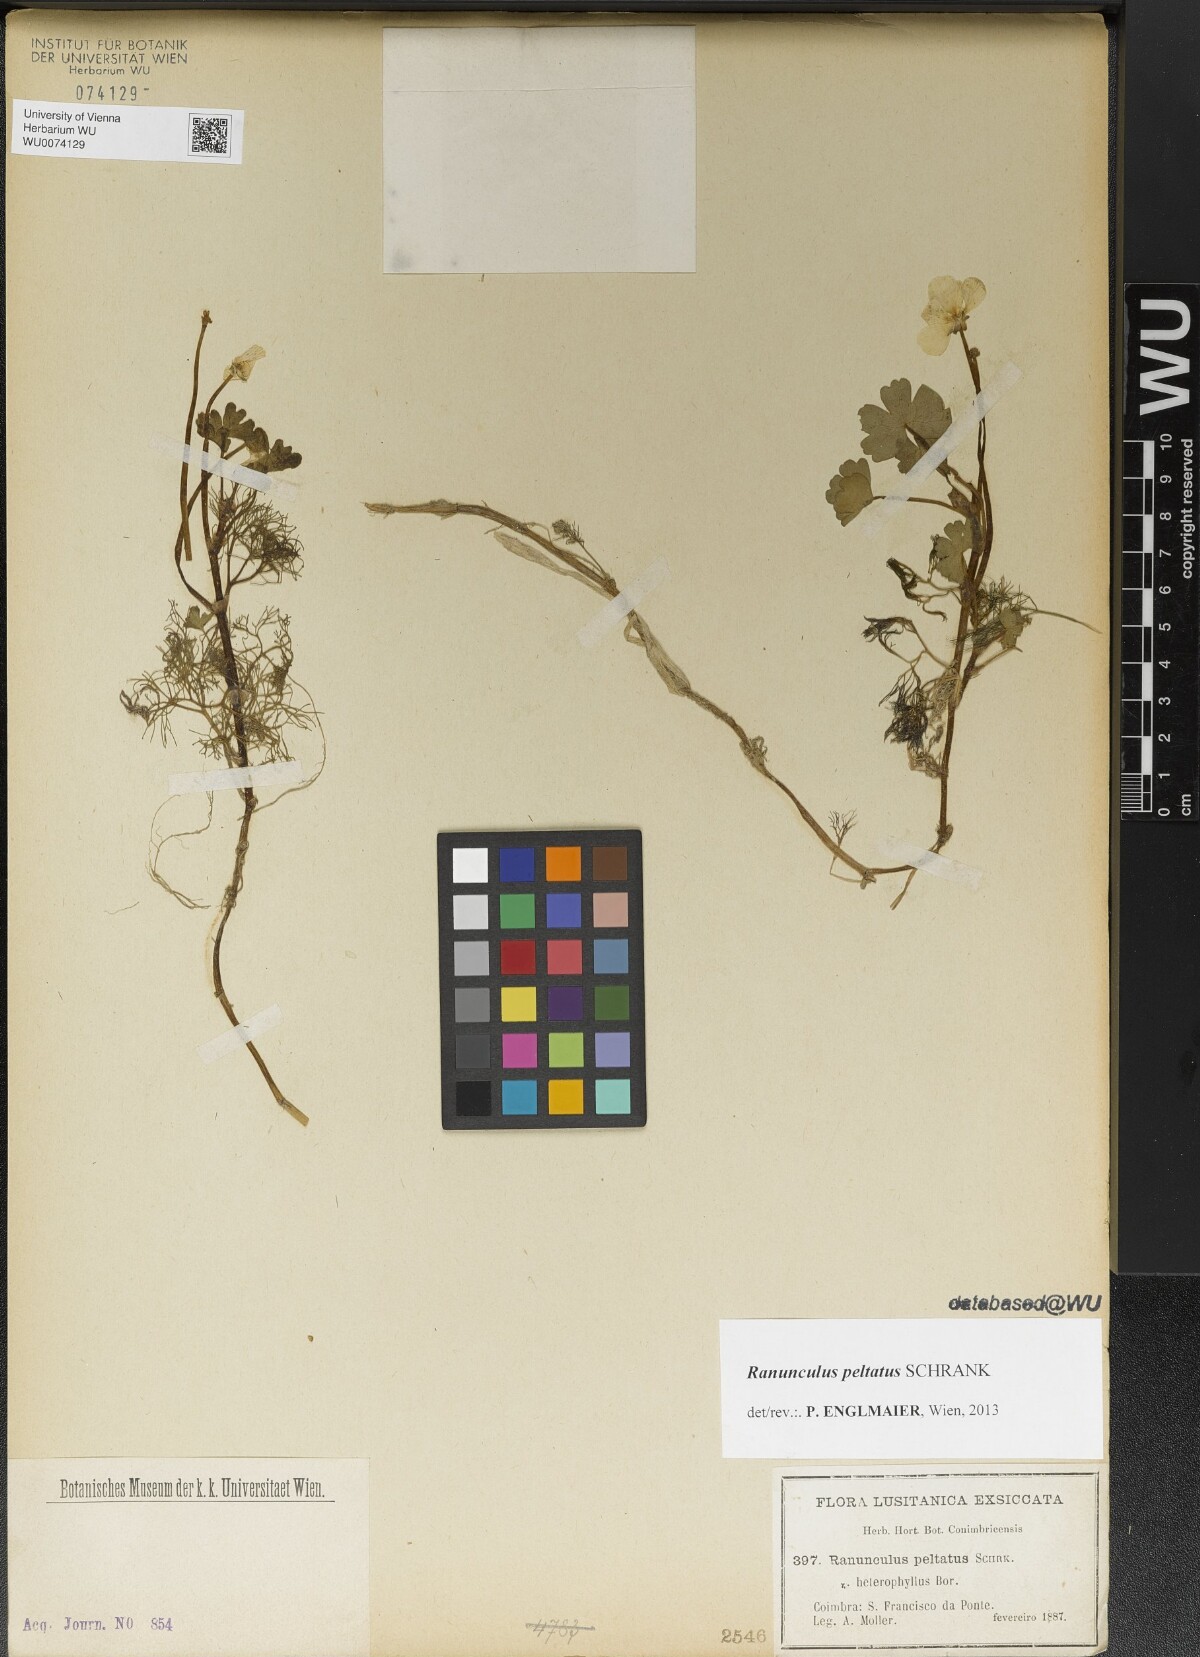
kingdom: Plantae
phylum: Tracheophyta
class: Magnoliopsida
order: Ranunculales
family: Ranunculaceae
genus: Ranunculus
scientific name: Ranunculus peltatus
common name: Pond water-crowfoot
